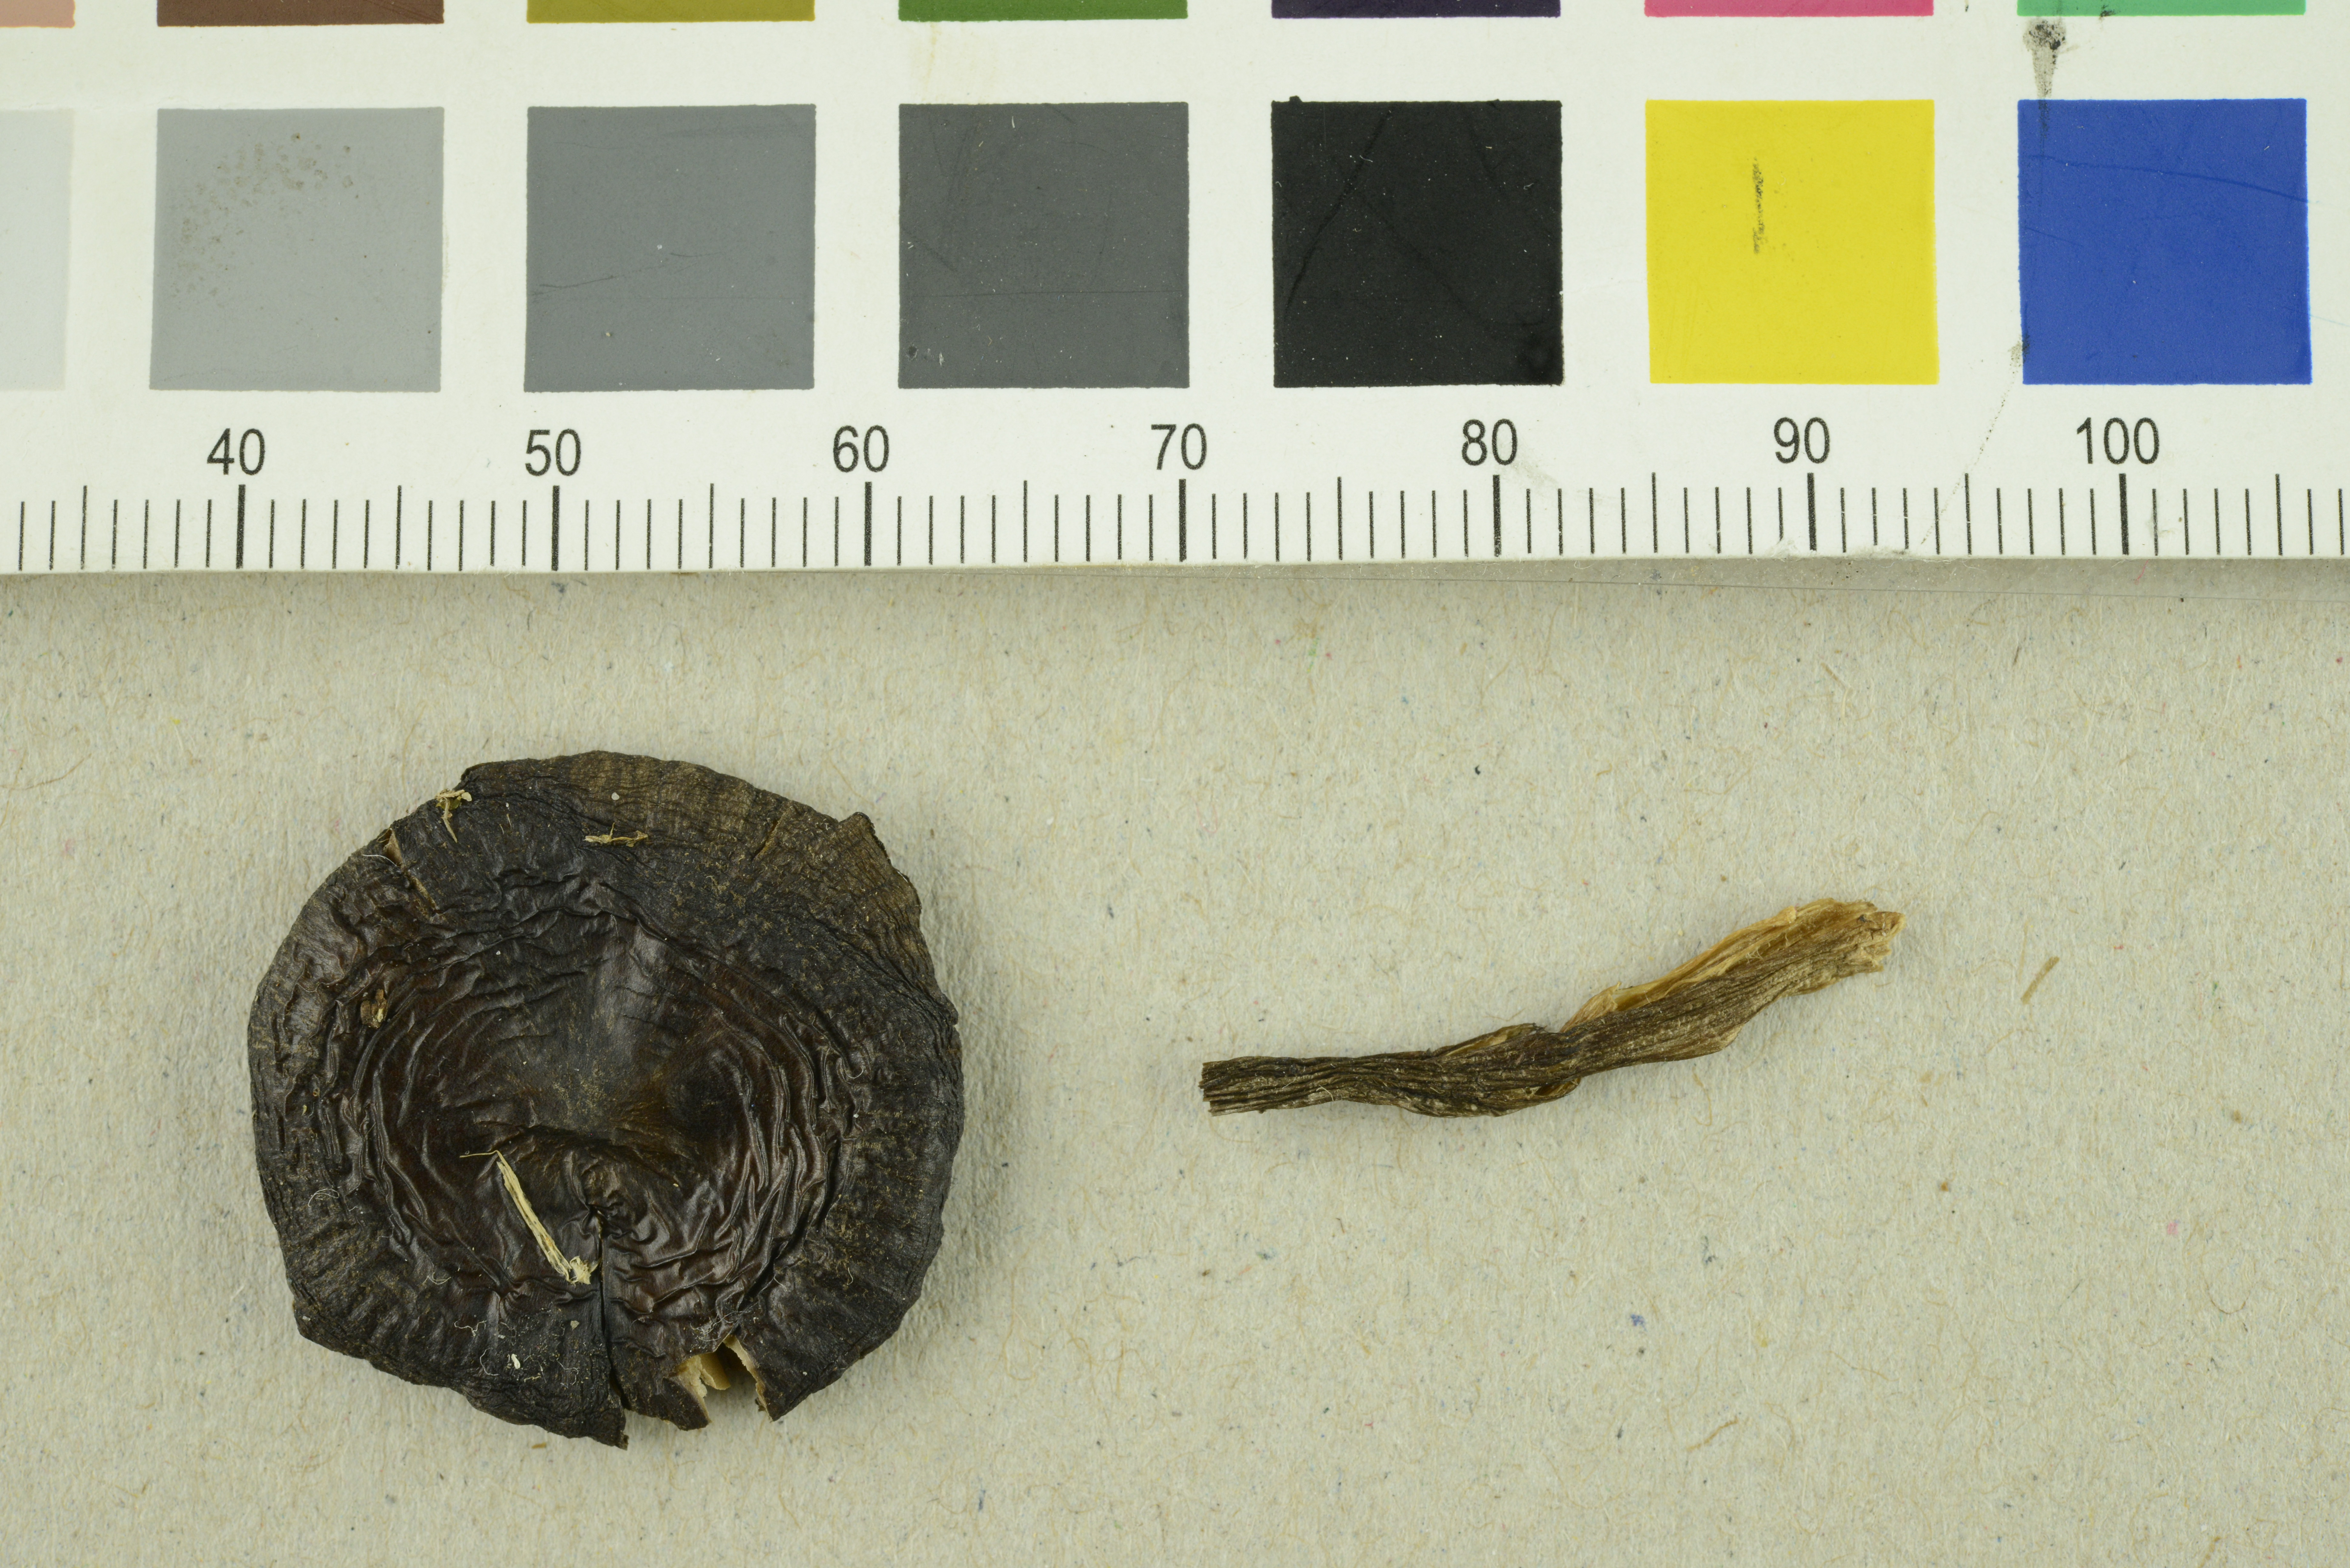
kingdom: Fungi
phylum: Basidiomycota
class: Agaricomycetes
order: Agaricales
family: Entolomataceae
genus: Entoloma
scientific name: Entoloma elodes
